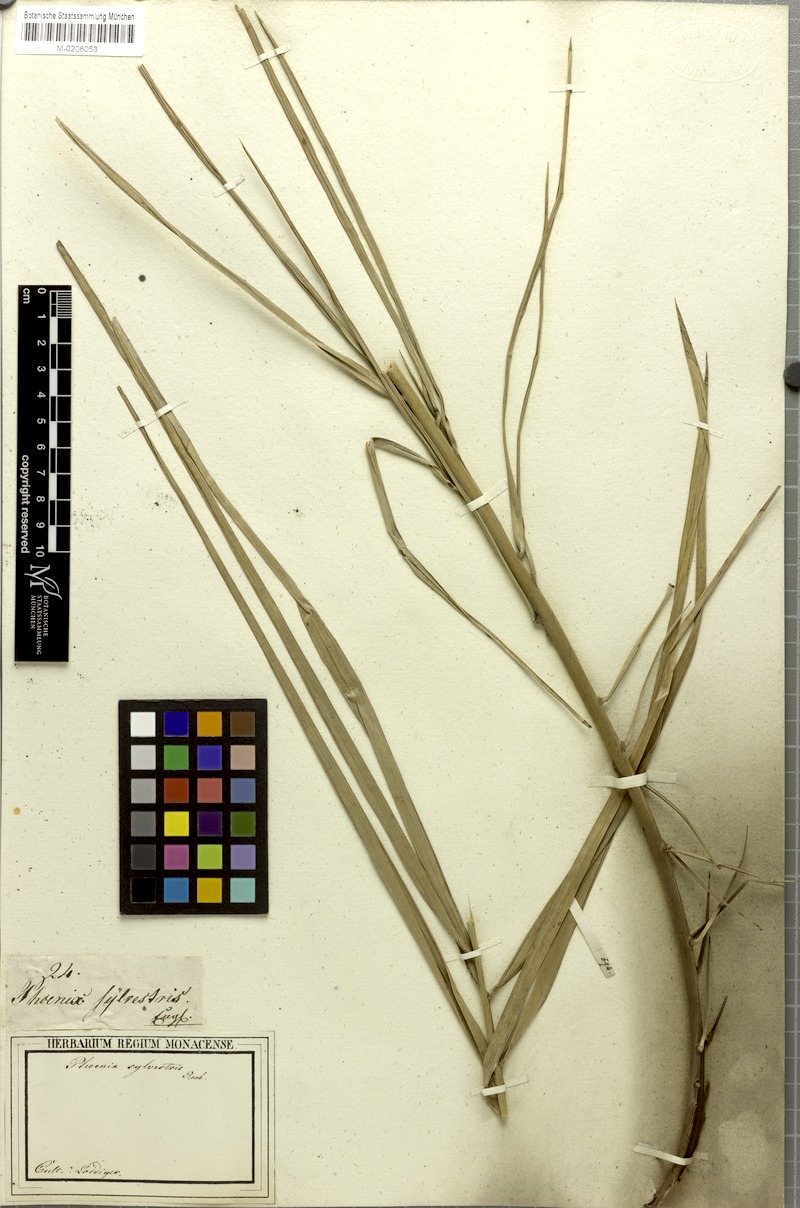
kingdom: Plantae
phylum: Tracheophyta
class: Liliopsida
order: Arecales
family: Arecaceae
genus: Phoenix
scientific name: Phoenix sylvestris
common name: Wild date palm
